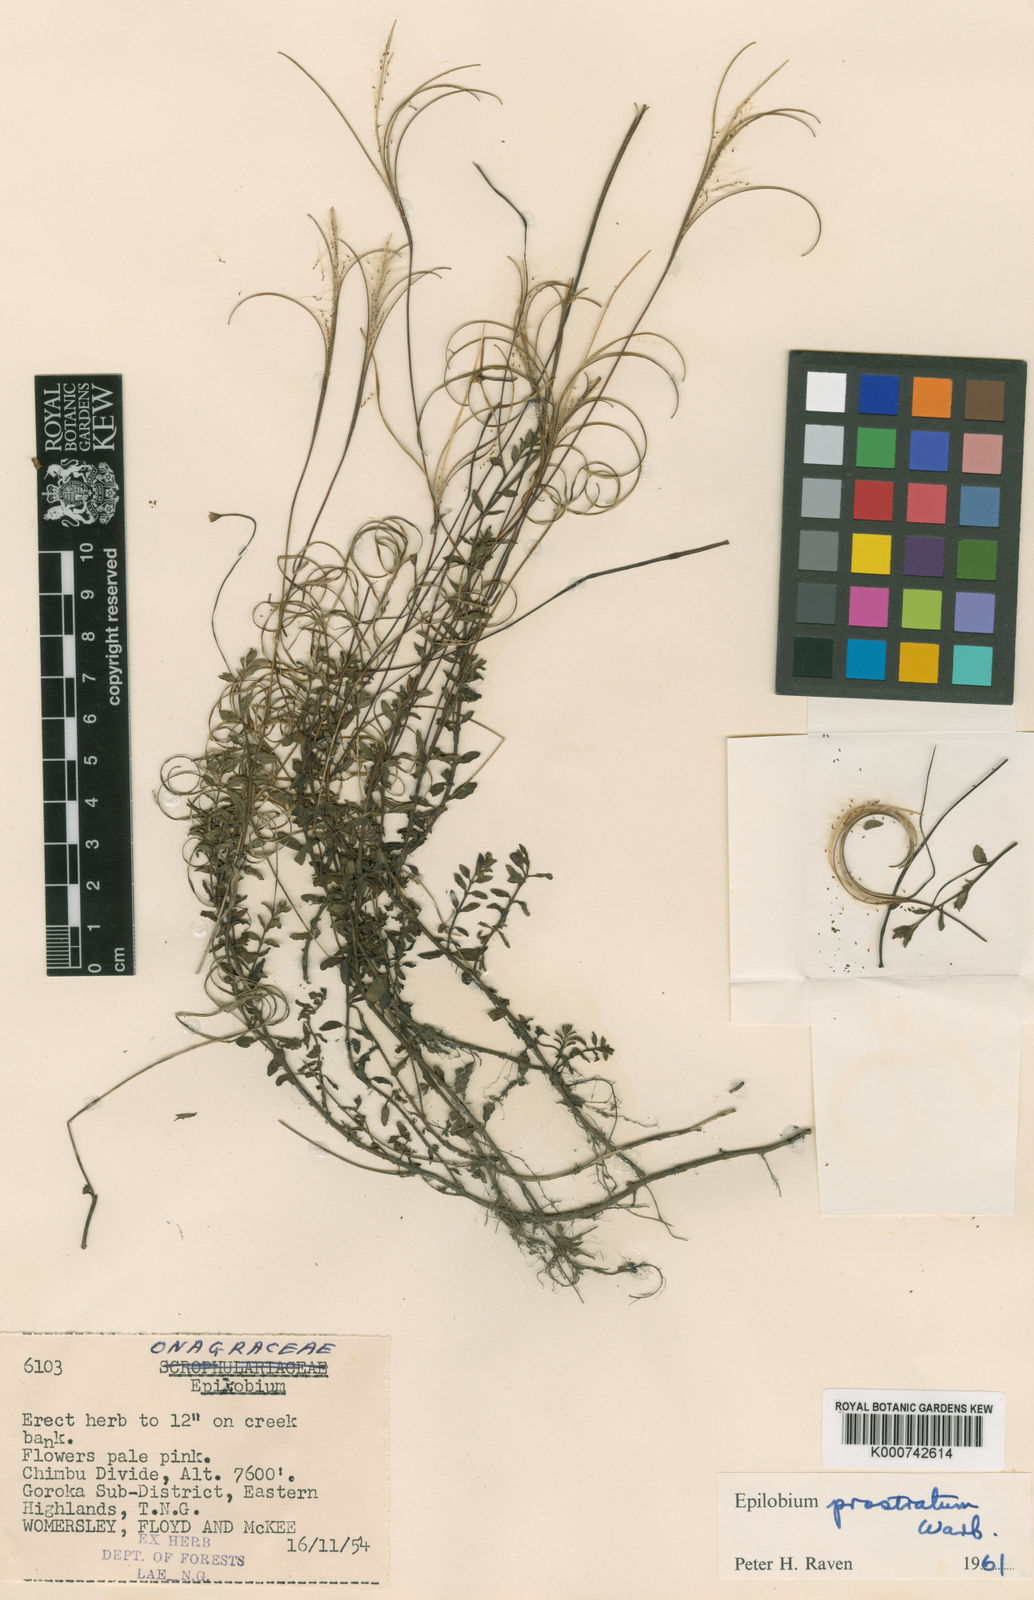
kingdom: Plantae
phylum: Tracheophyta
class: Magnoliopsida
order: Myrtales
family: Onagraceae
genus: Epilobium
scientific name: Epilobium prostratum
